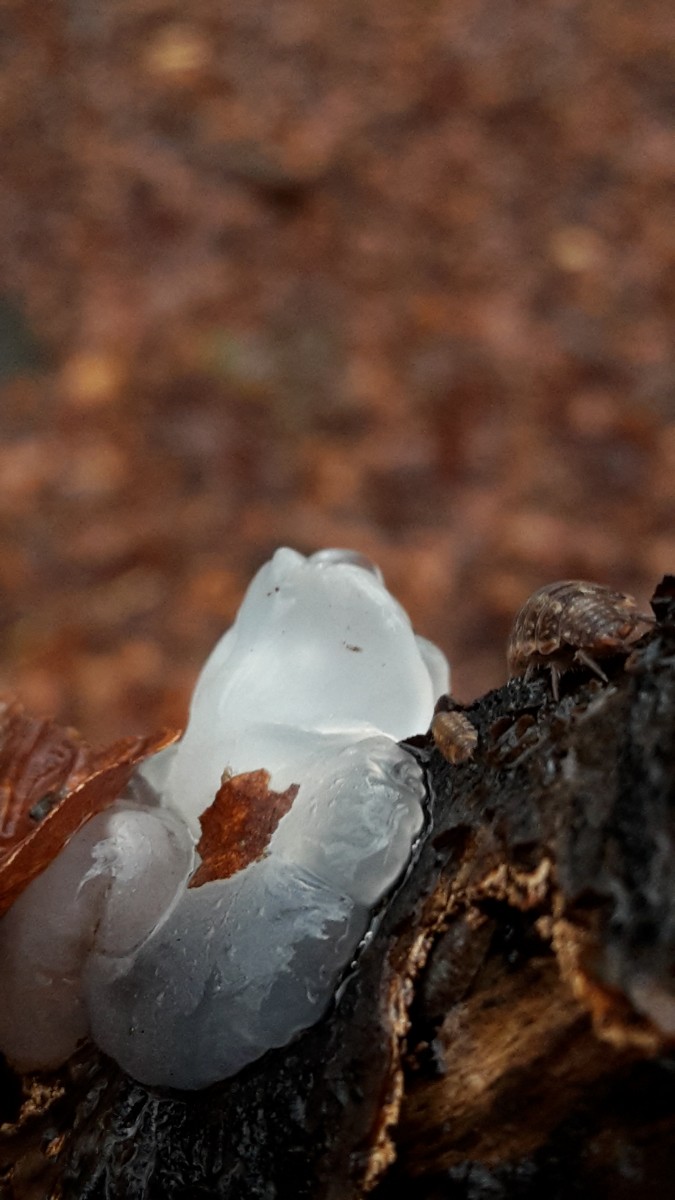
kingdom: Fungi
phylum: Basidiomycota
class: Agaricomycetes
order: Auriculariales
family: Hyaloriaceae
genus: Myxarium
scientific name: Myxarium nucleatum
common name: klar bævretop
